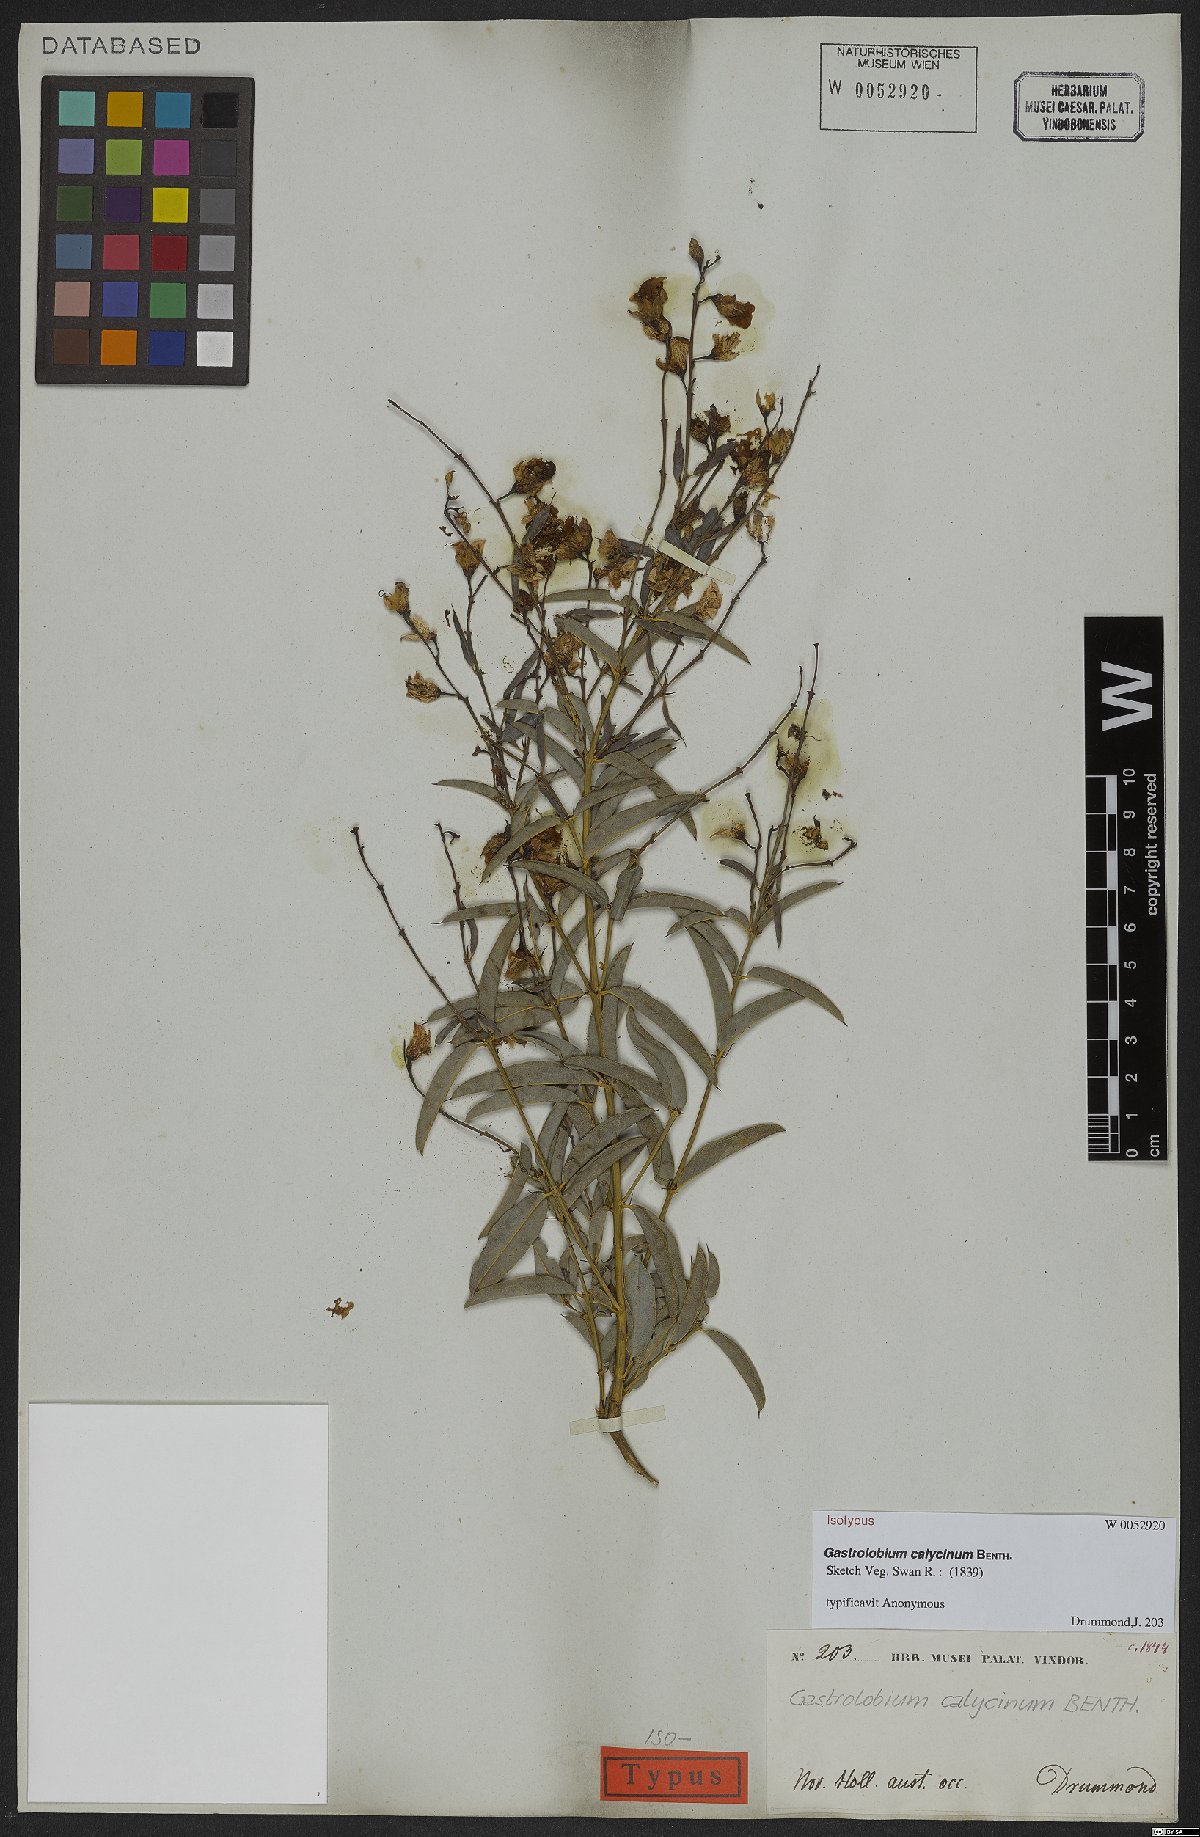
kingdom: Plantae
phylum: Tracheophyta
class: Magnoliopsida
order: Fabales
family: Fabaceae
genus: Gastrolobium
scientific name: Gastrolobium calycinum
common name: York road poison
